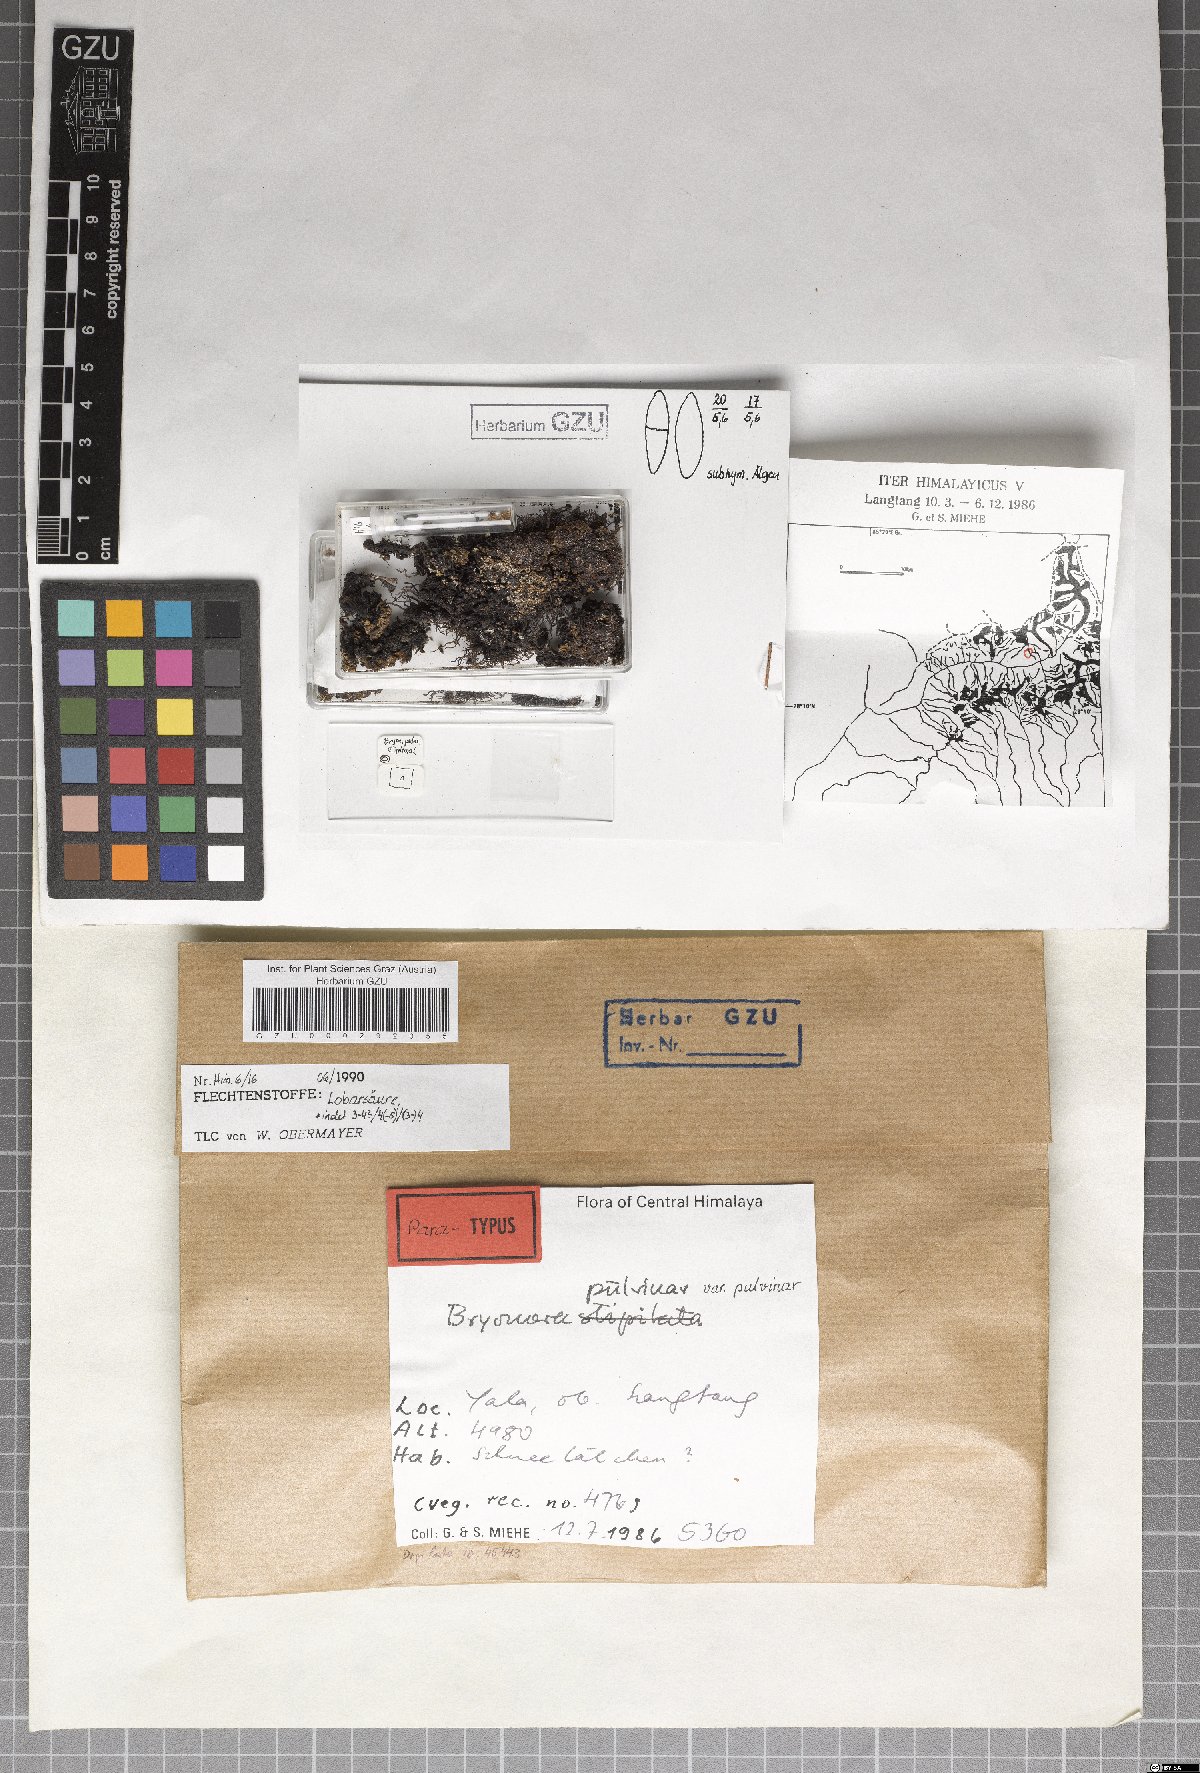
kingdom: Fungi
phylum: Ascomycota
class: Lecanoromycetes
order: Lecanorales
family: Lecanoraceae
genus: Bryonora
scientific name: Bryonora pulvinar
